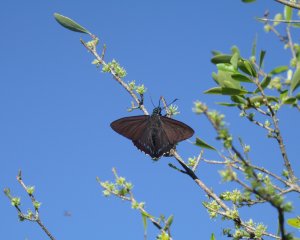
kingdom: Animalia
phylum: Arthropoda
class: Insecta
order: Lepidoptera
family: Hesperiidae
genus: Phocides
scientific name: Phocides pigmalion
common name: Mangrove Skipper
